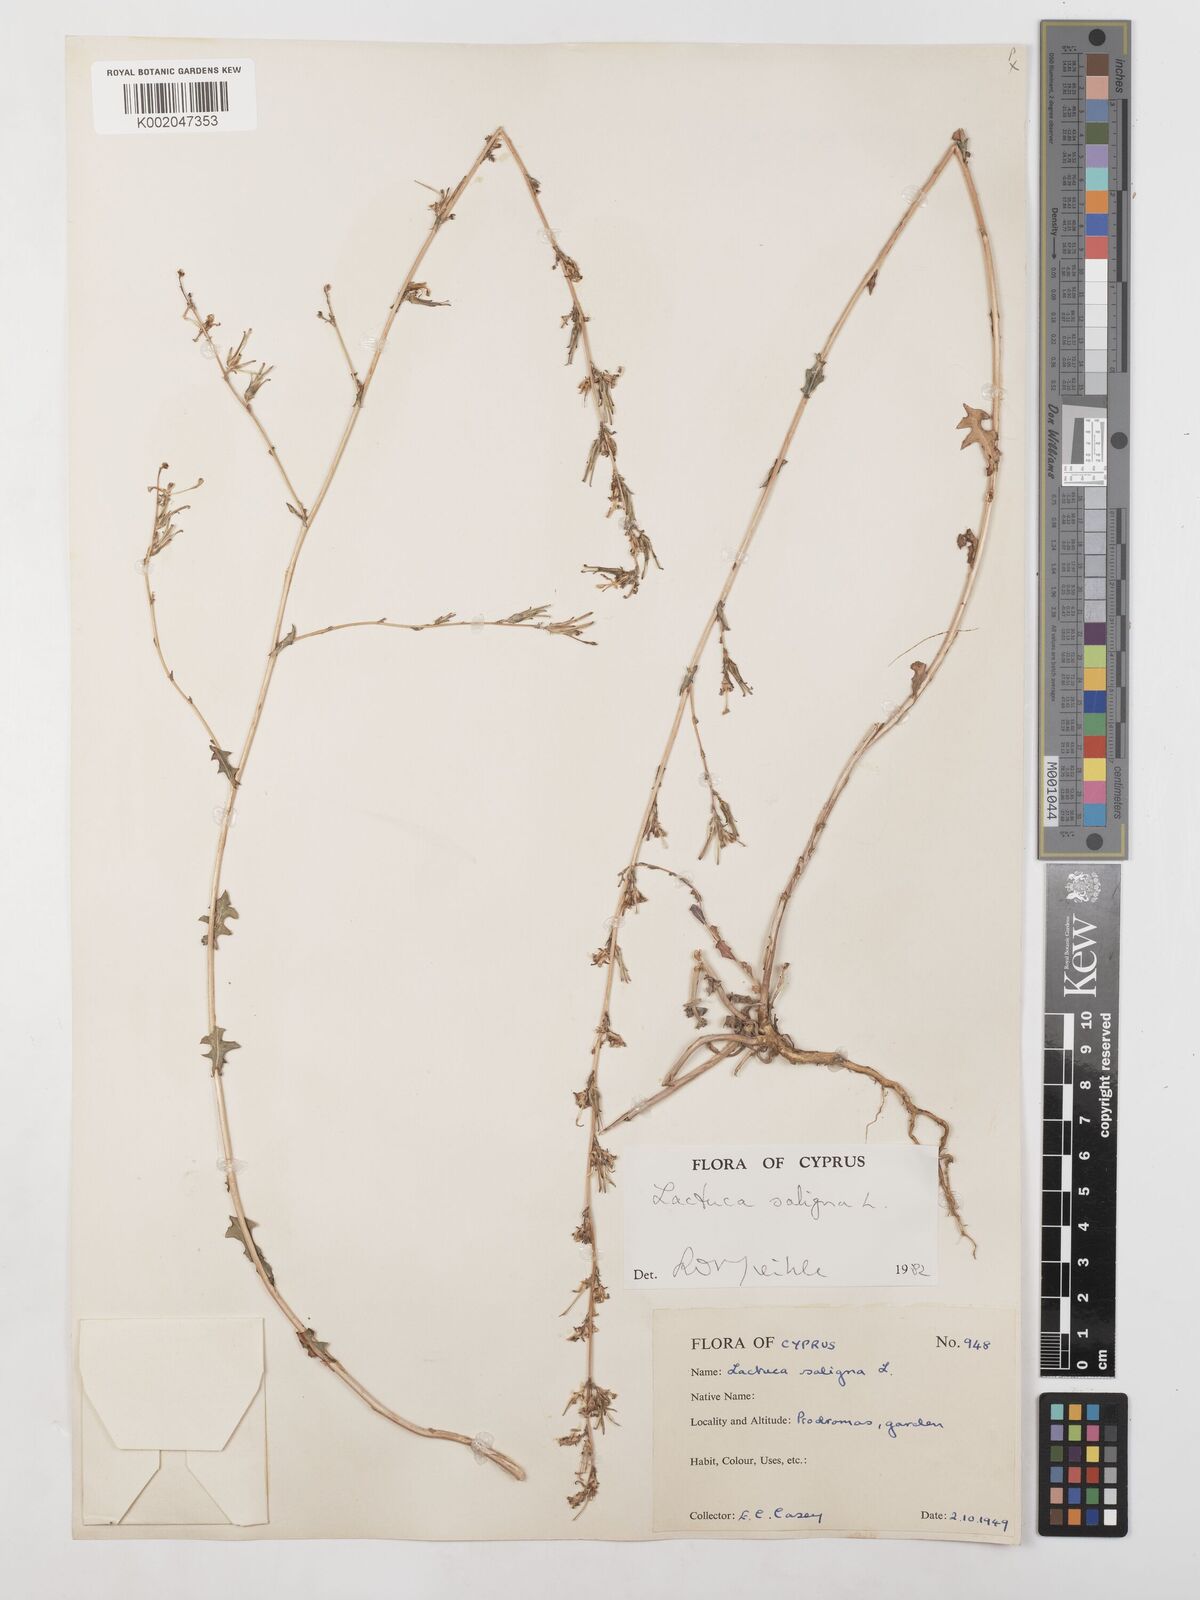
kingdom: Plantae
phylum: Tracheophyta
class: Magnoliopsida
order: Asterales
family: Asteraceae
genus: Lactuca
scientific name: Lactuca saligna
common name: Wild lettuce
